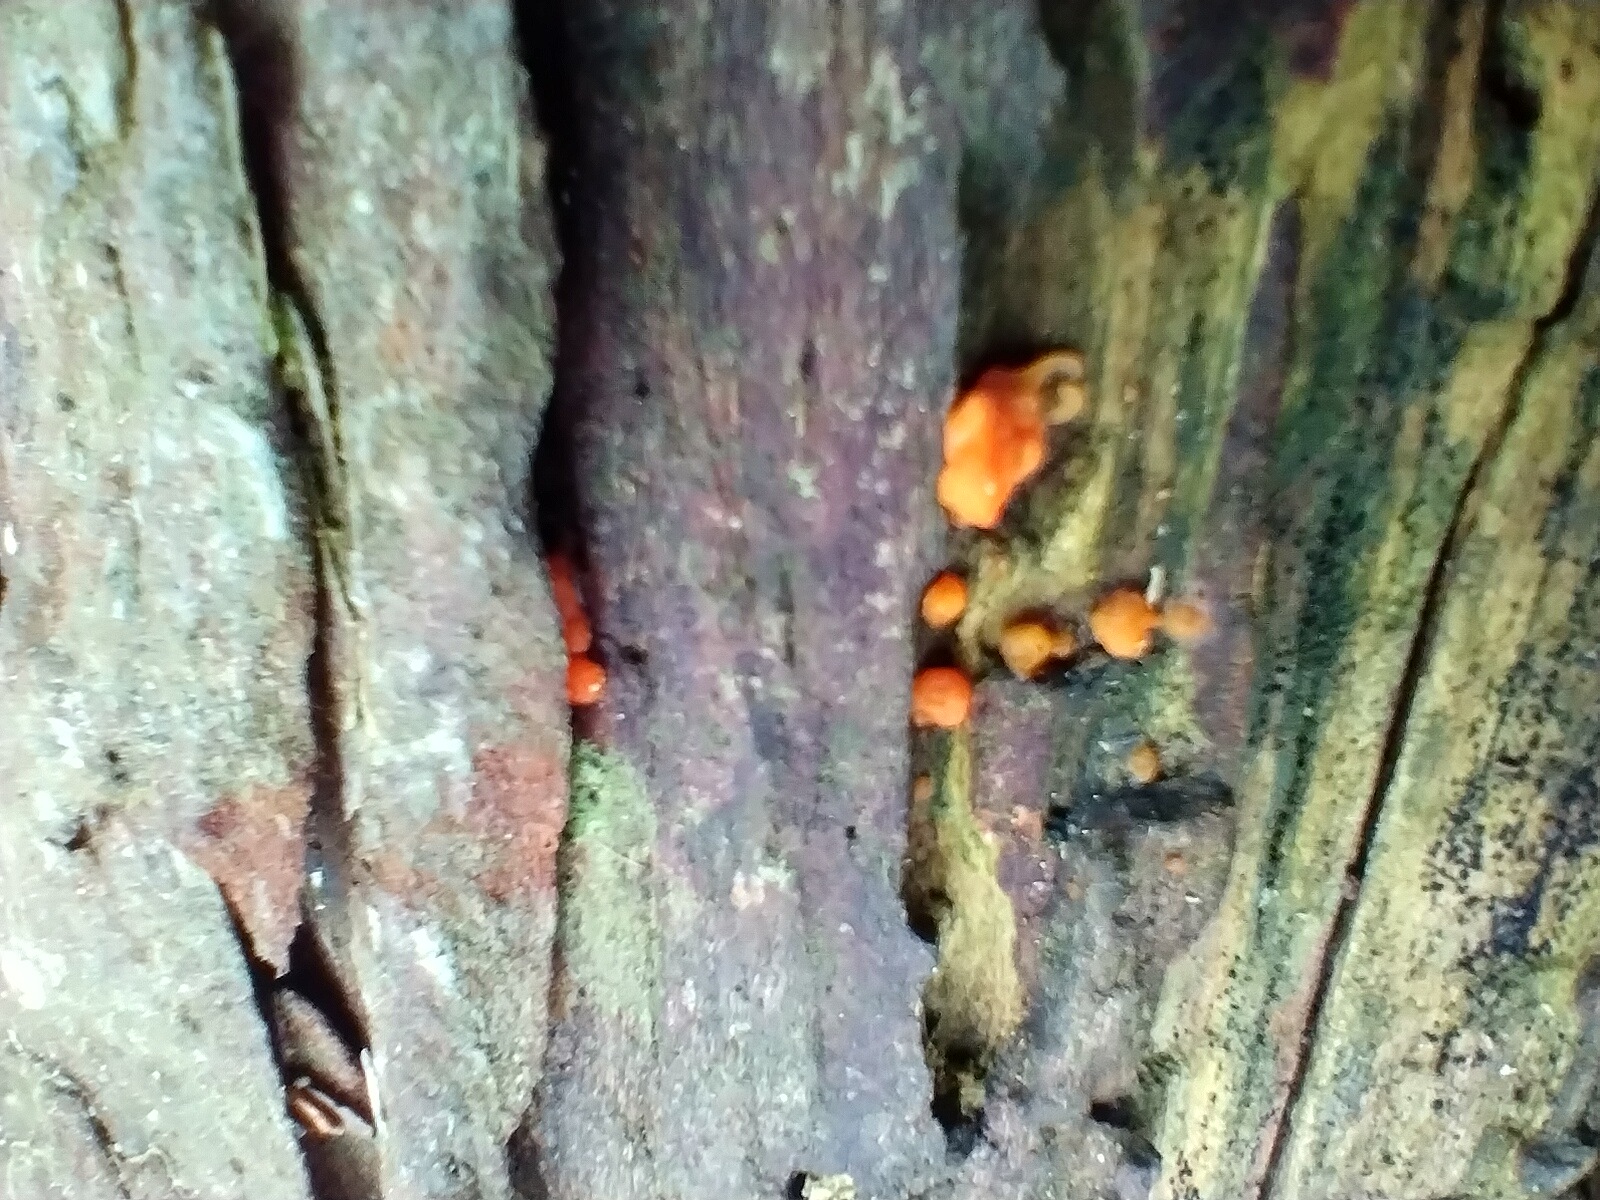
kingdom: Fungi
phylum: Basidiomycota
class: Dacrymycetes
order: Dacrymycetales
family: Dacrymycetaceae
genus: Dacrymyces
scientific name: Dacrymyces stillatus
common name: almindelig tåresvamp
